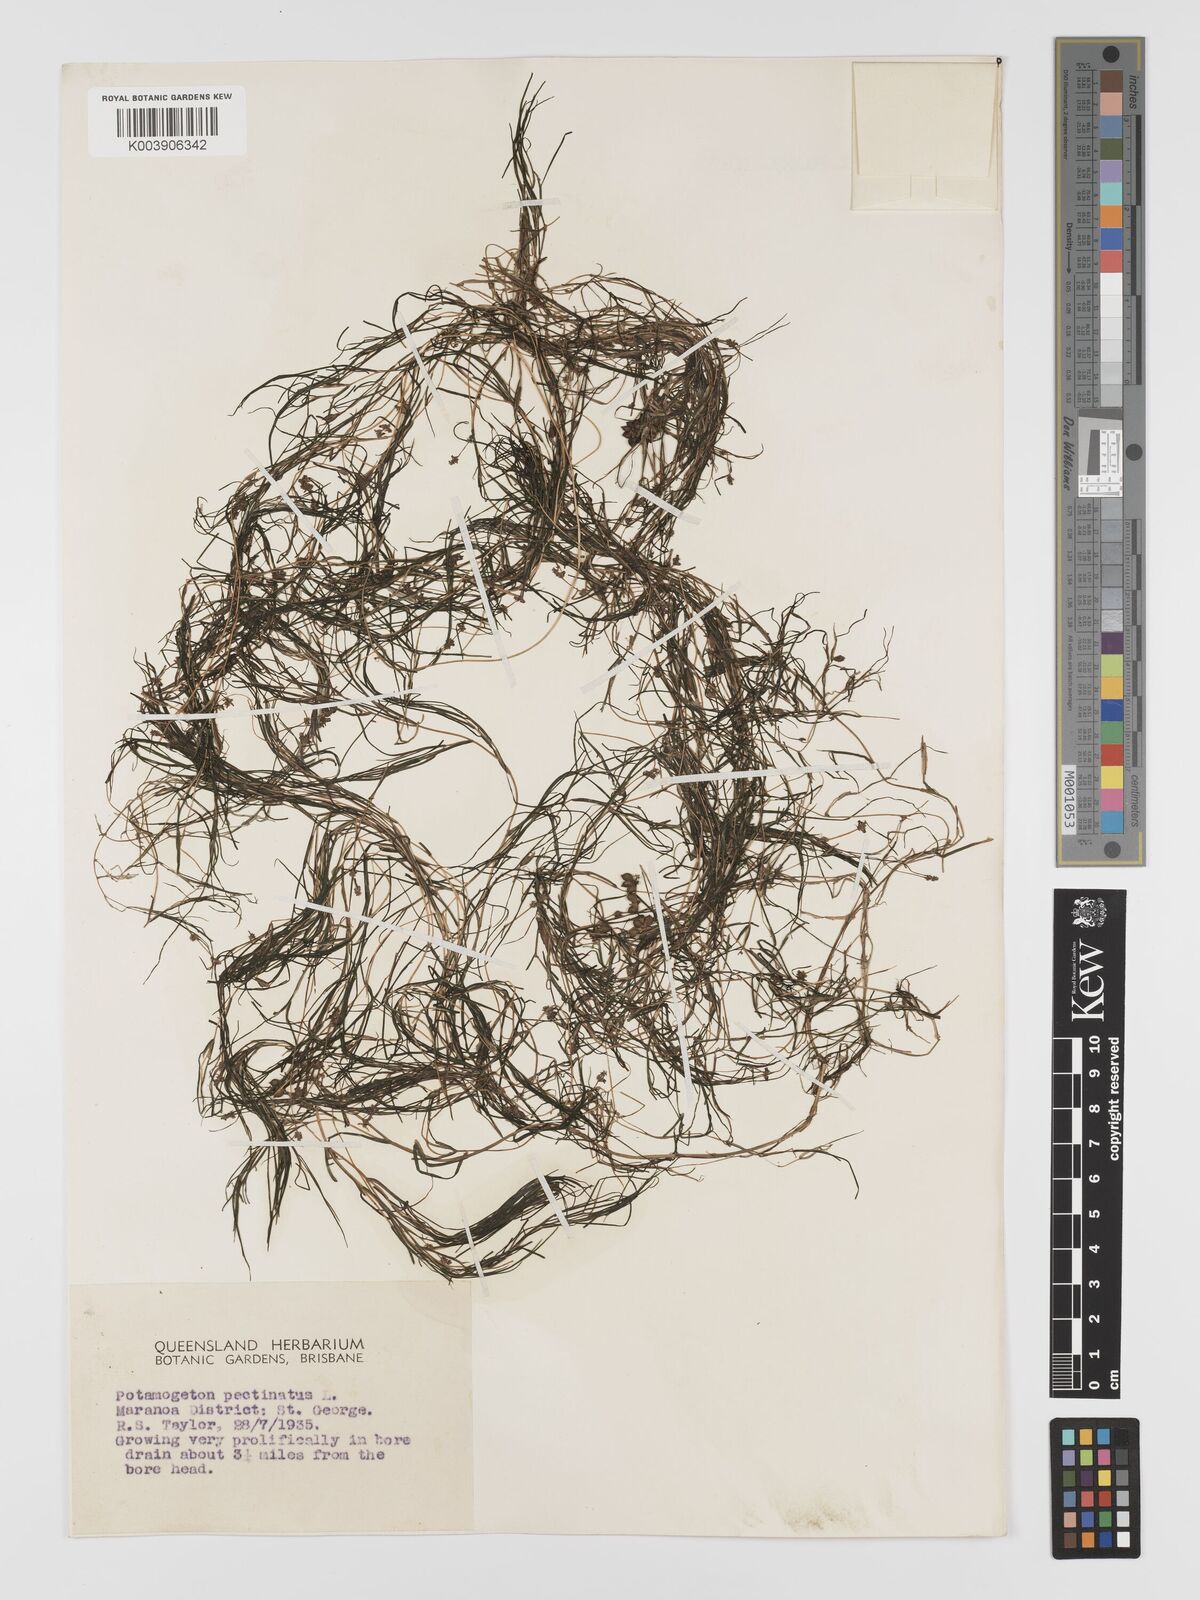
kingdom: Plantae
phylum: Tracheophyta
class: Liliopsida
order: Alismatales
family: Potamogetonaceae
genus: Stuckenia
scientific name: Stuckenia pectinata
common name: Sago pondweed
